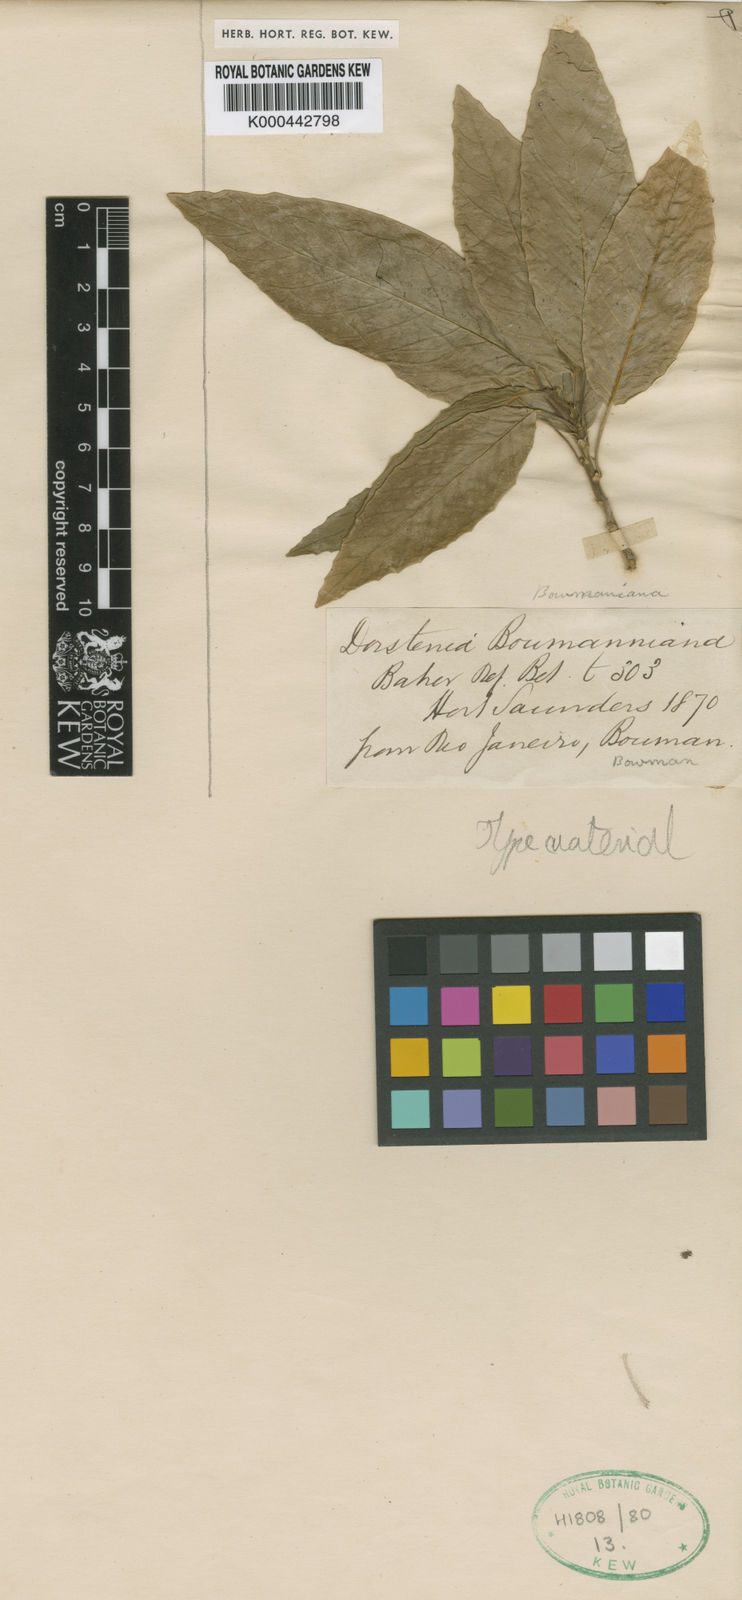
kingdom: Plantae
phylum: Tracheophyta
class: Magnoliopsida
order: Rosales
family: Moraceae
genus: Dorstenia
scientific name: Dorstenia bowmanniana
